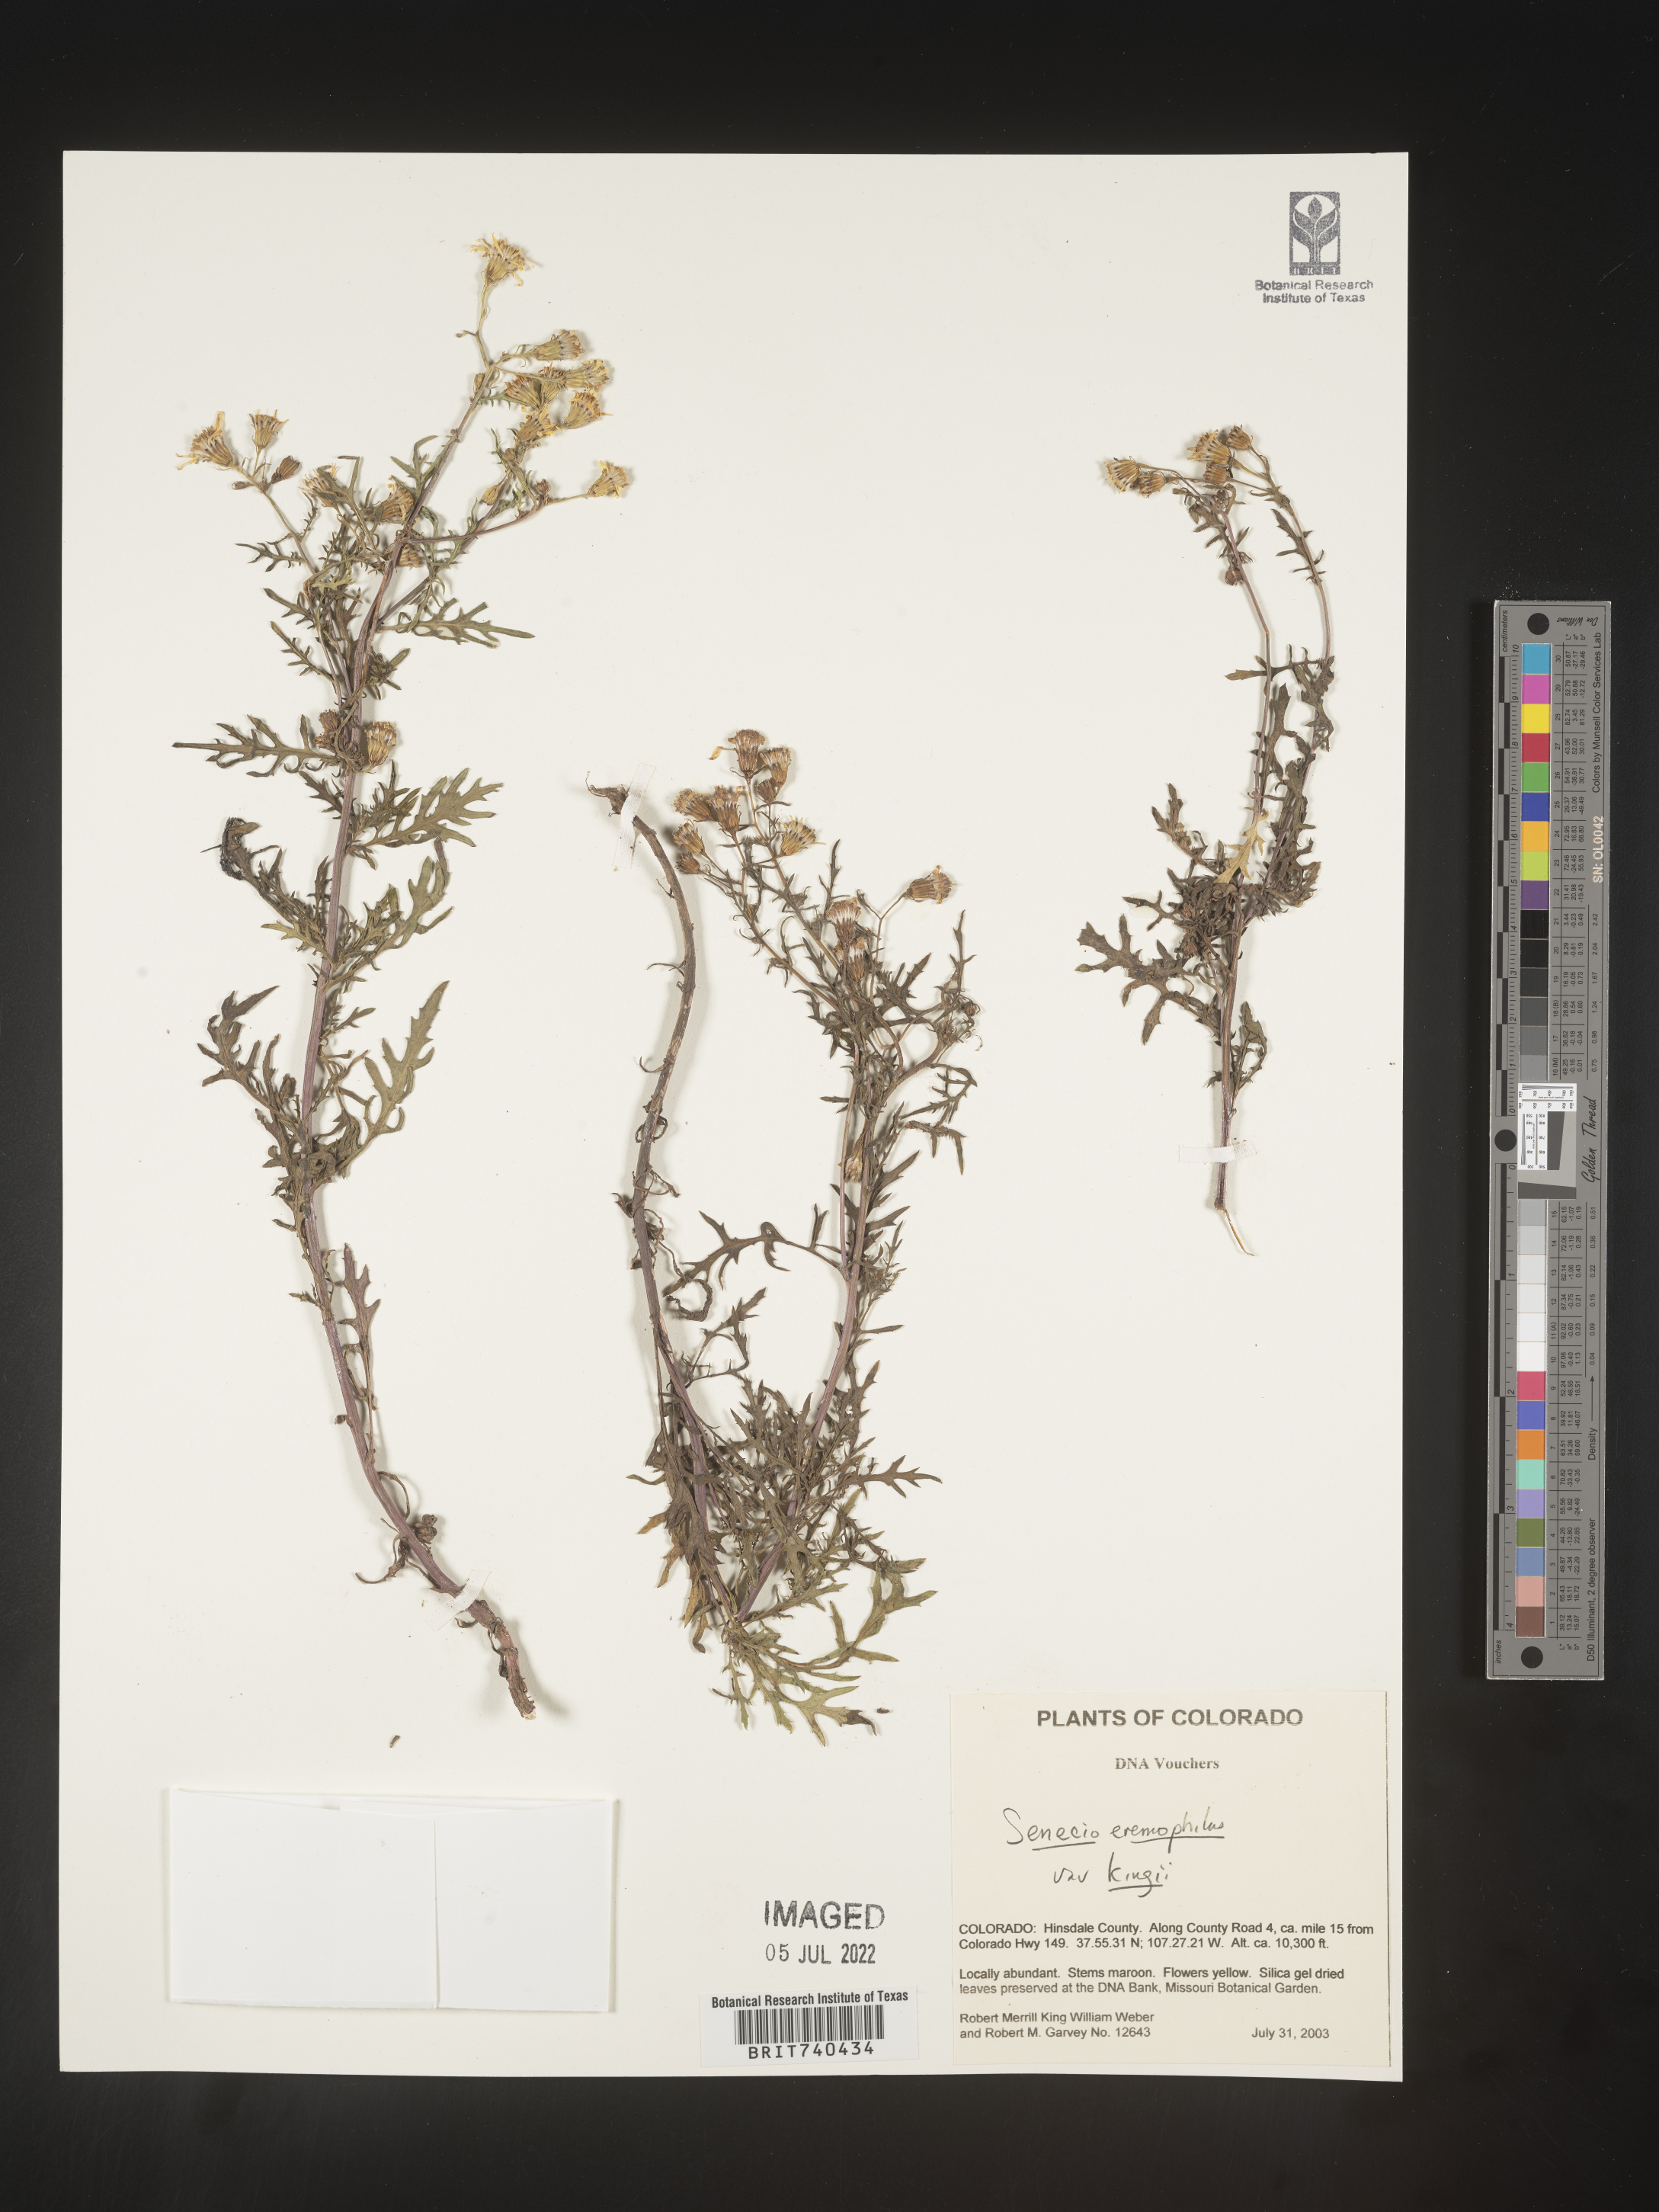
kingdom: Plantae
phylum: Tracheophyta
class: Magnoliopsida
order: Asterales
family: Asteraceae
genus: Senecio
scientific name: Senecio eremophilus
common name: Desert ragwort
